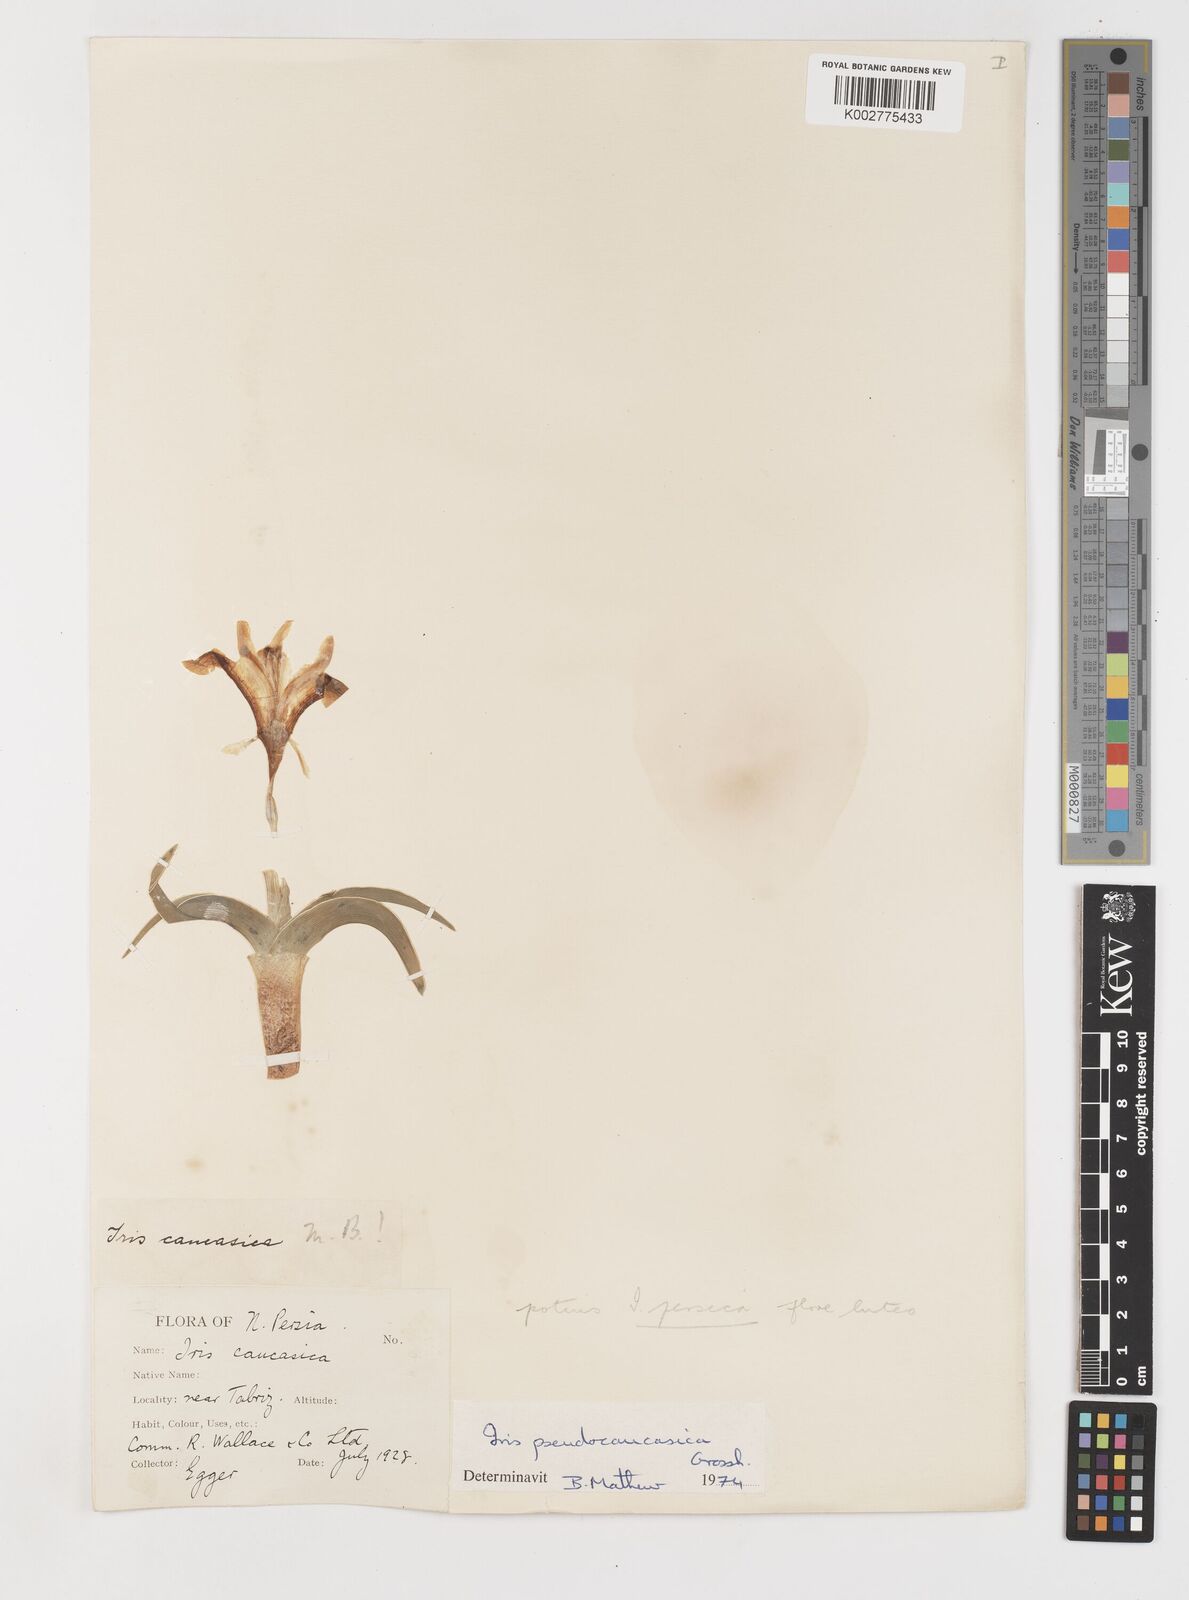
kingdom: Plantae
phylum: Tracheophyta
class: Liliopsida
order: Asparagales
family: Iridaceae
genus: Iris
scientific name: Iris pseudocaucasica
